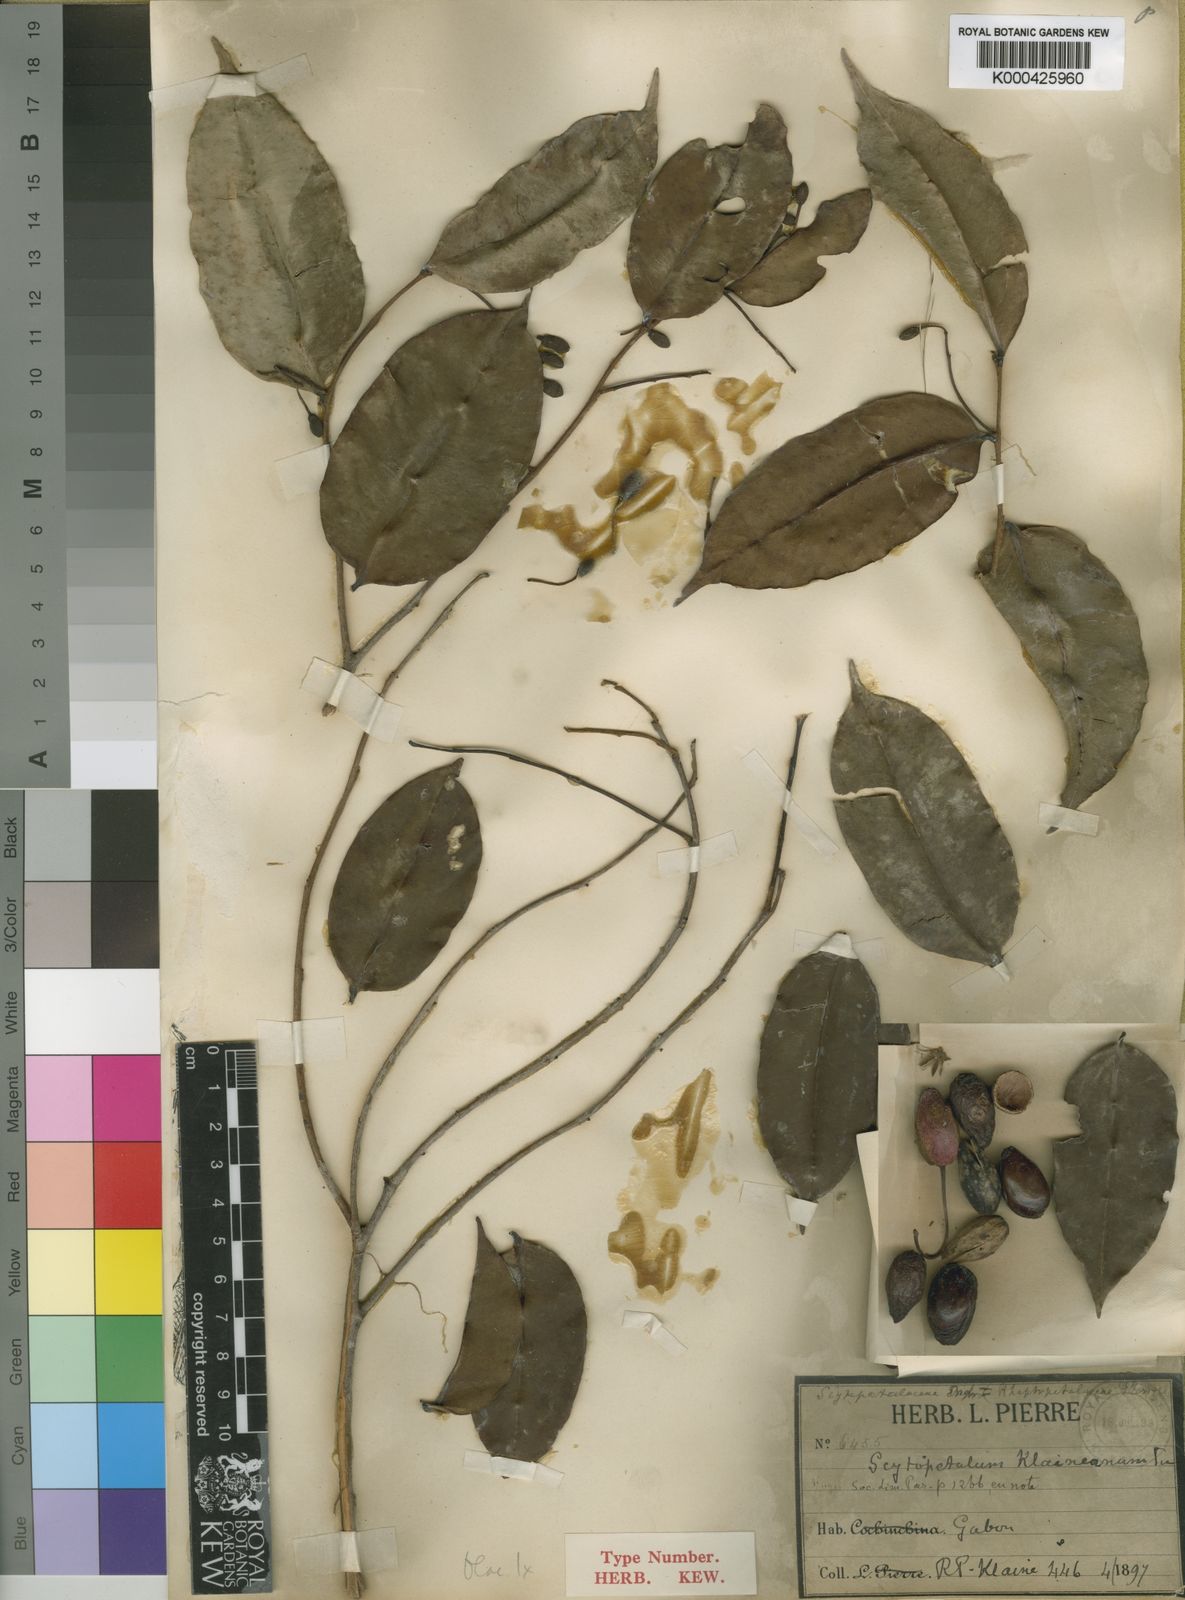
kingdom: Plantae
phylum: Tracheophyta
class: Magnoliopsida
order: Ericales
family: Lecythidaceae
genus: Scytopetalum
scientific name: Scytopetalum klaineanum
